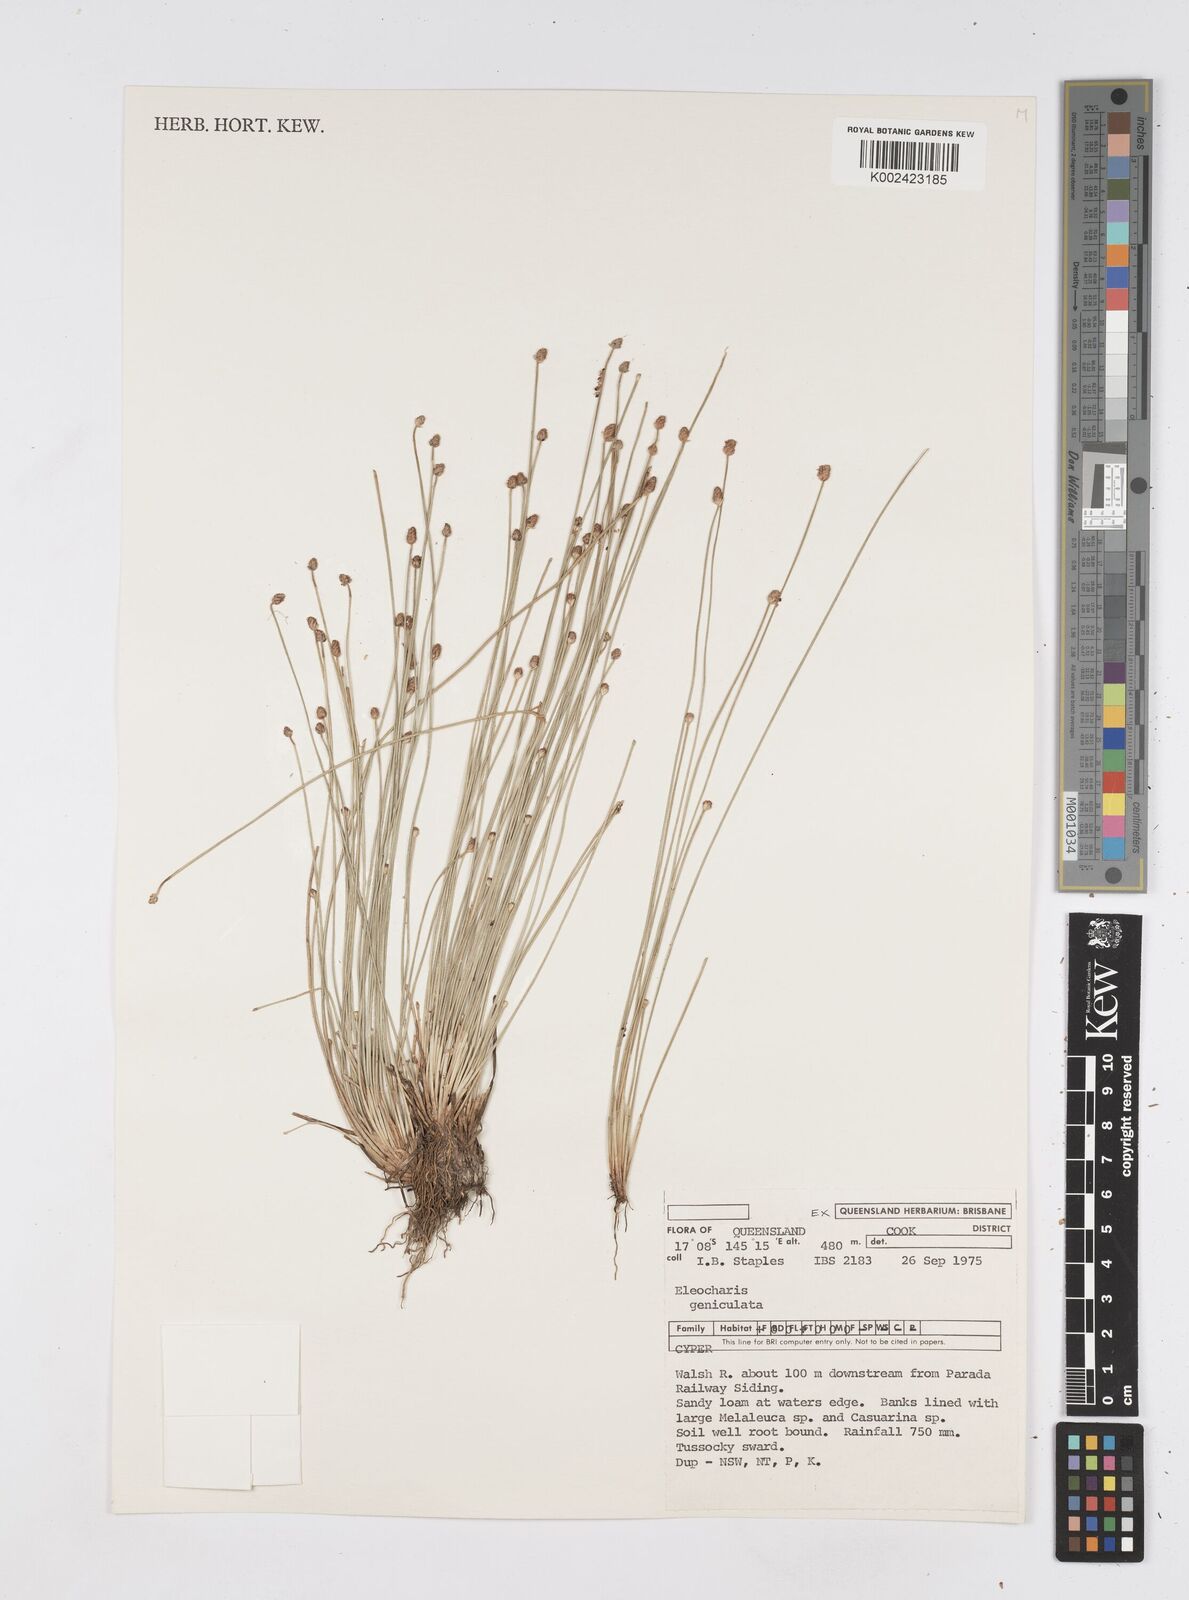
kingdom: Plantae
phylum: Tracheophyta
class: Liliopsida
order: Poales
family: Cyperaceae
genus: Eleocharis
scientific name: Eleocharis geniculata
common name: Canada spikesedge
